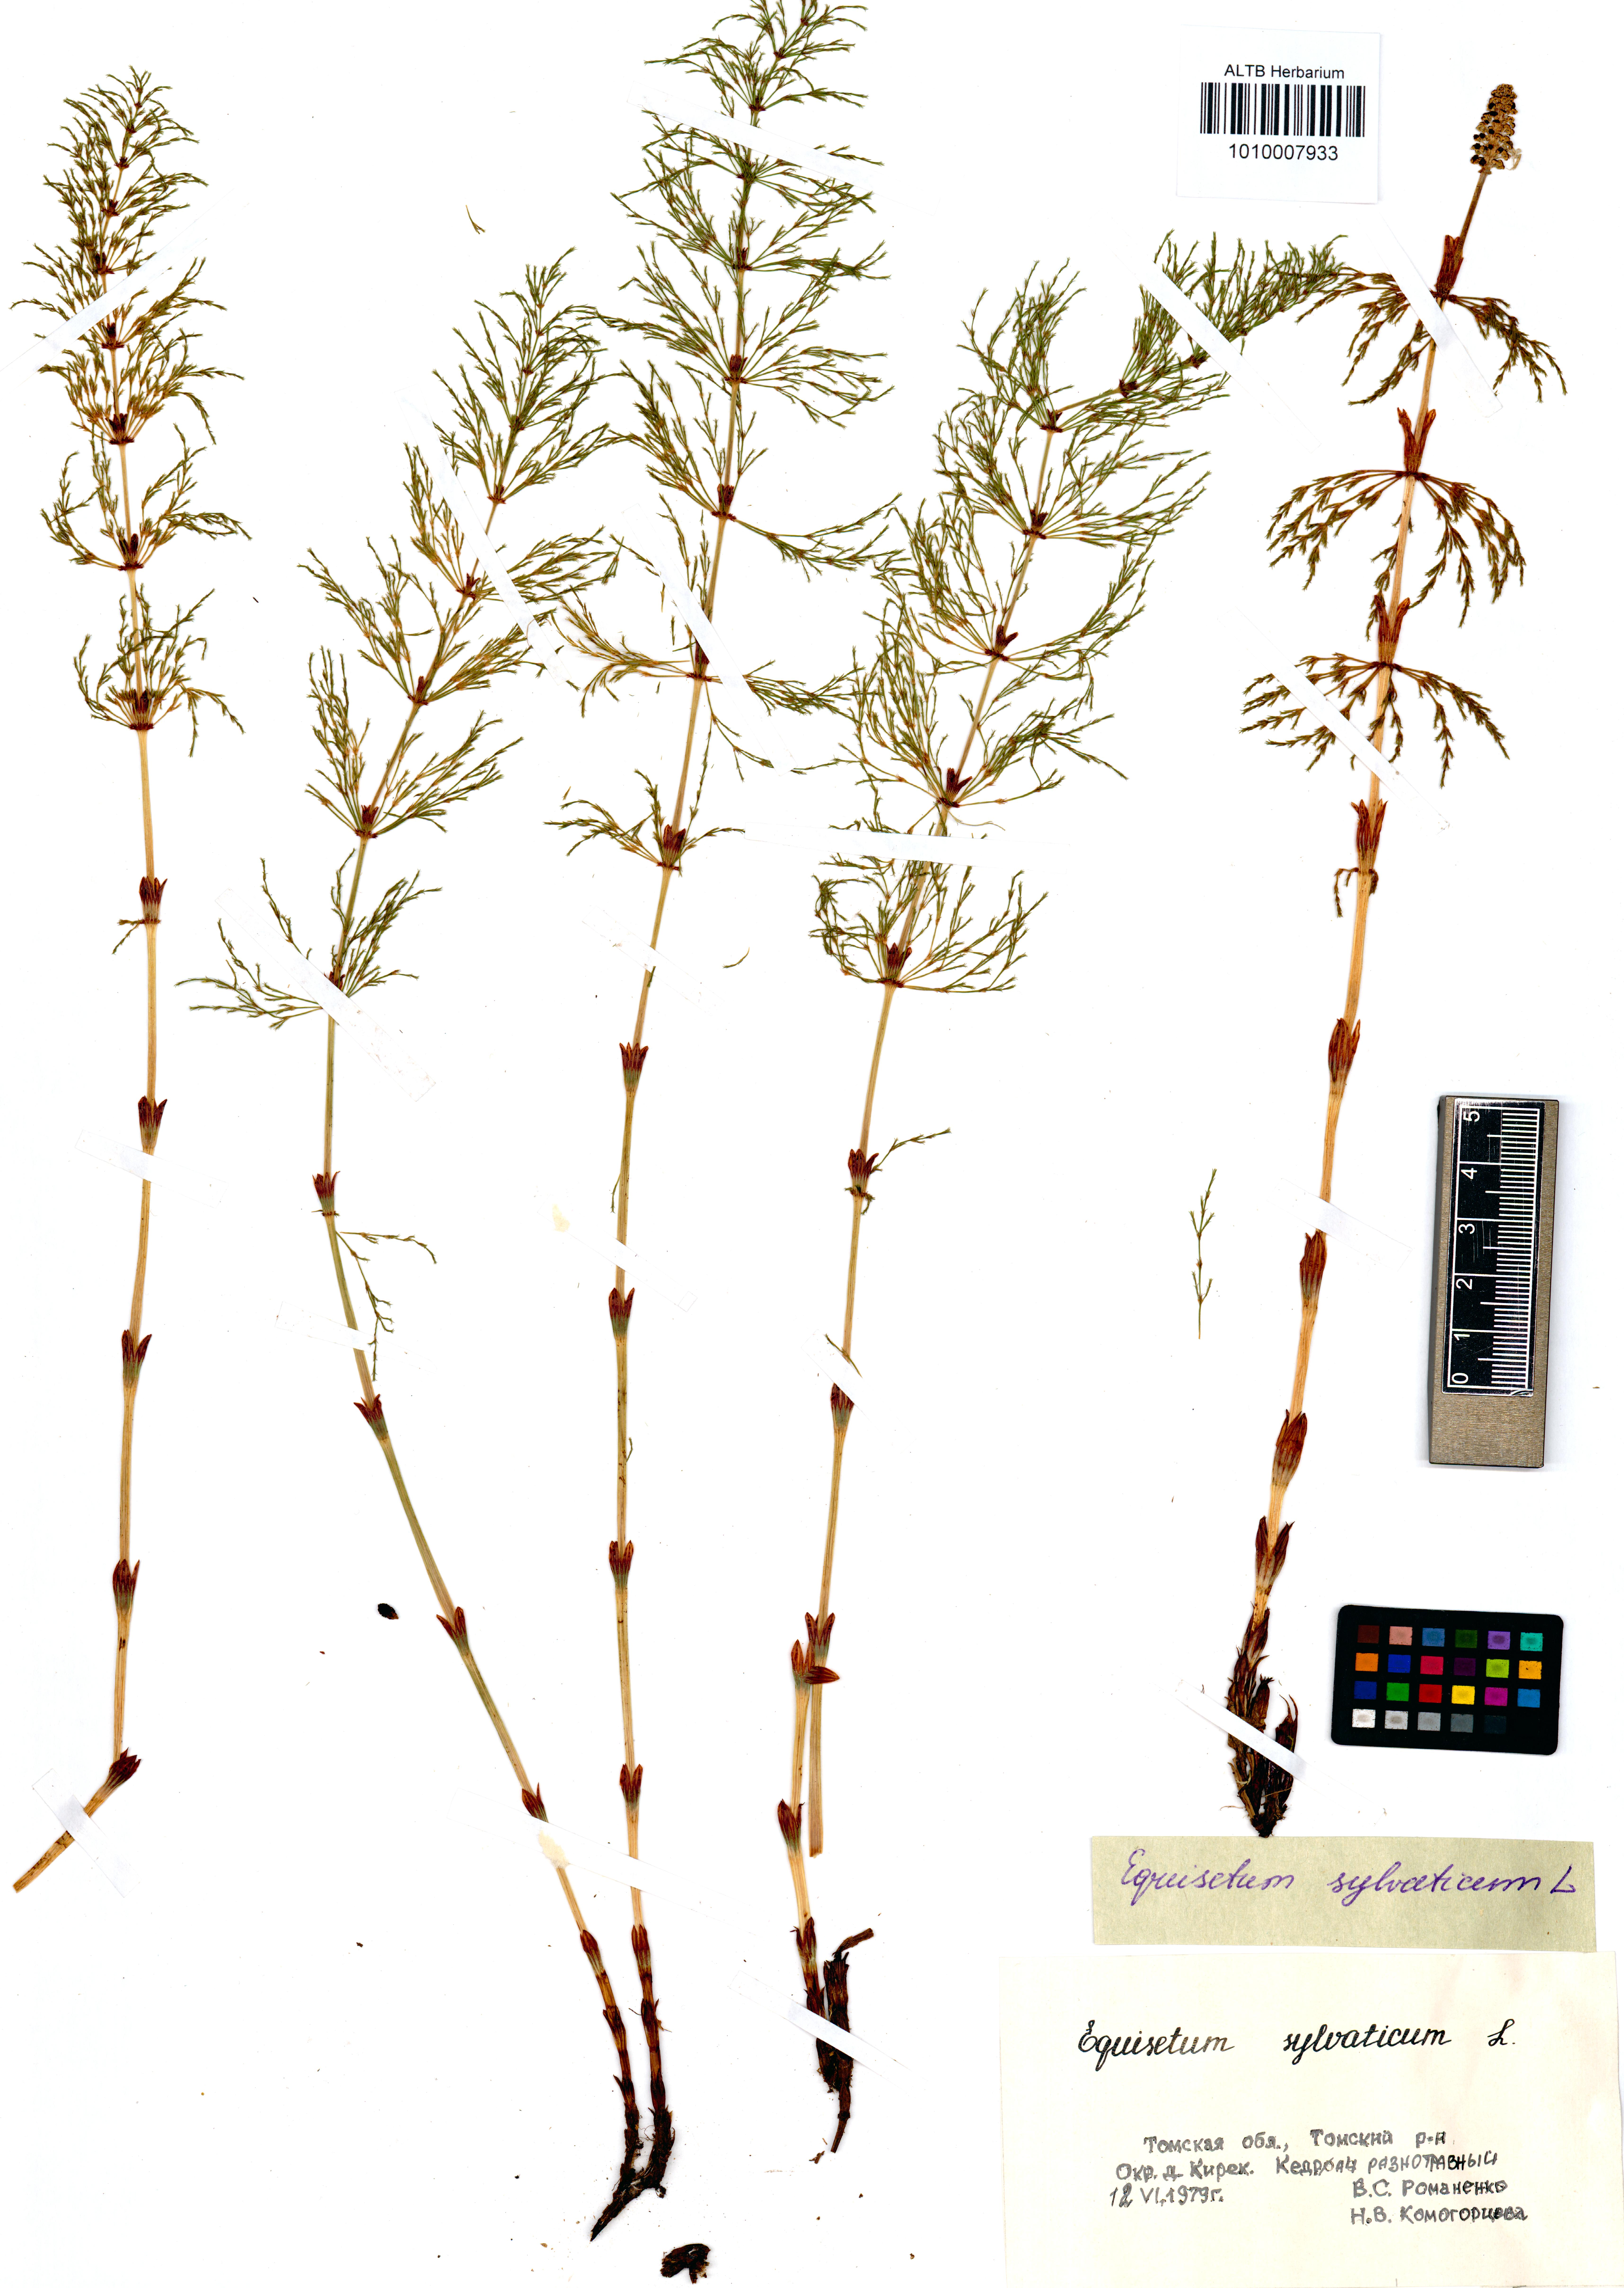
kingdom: Plantae
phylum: Tracheophyta
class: Polypodiopsida
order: Equisetales
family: Equisetaceae
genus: Equisetum
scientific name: Equisetum sylvaticum
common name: Wood horsetail
